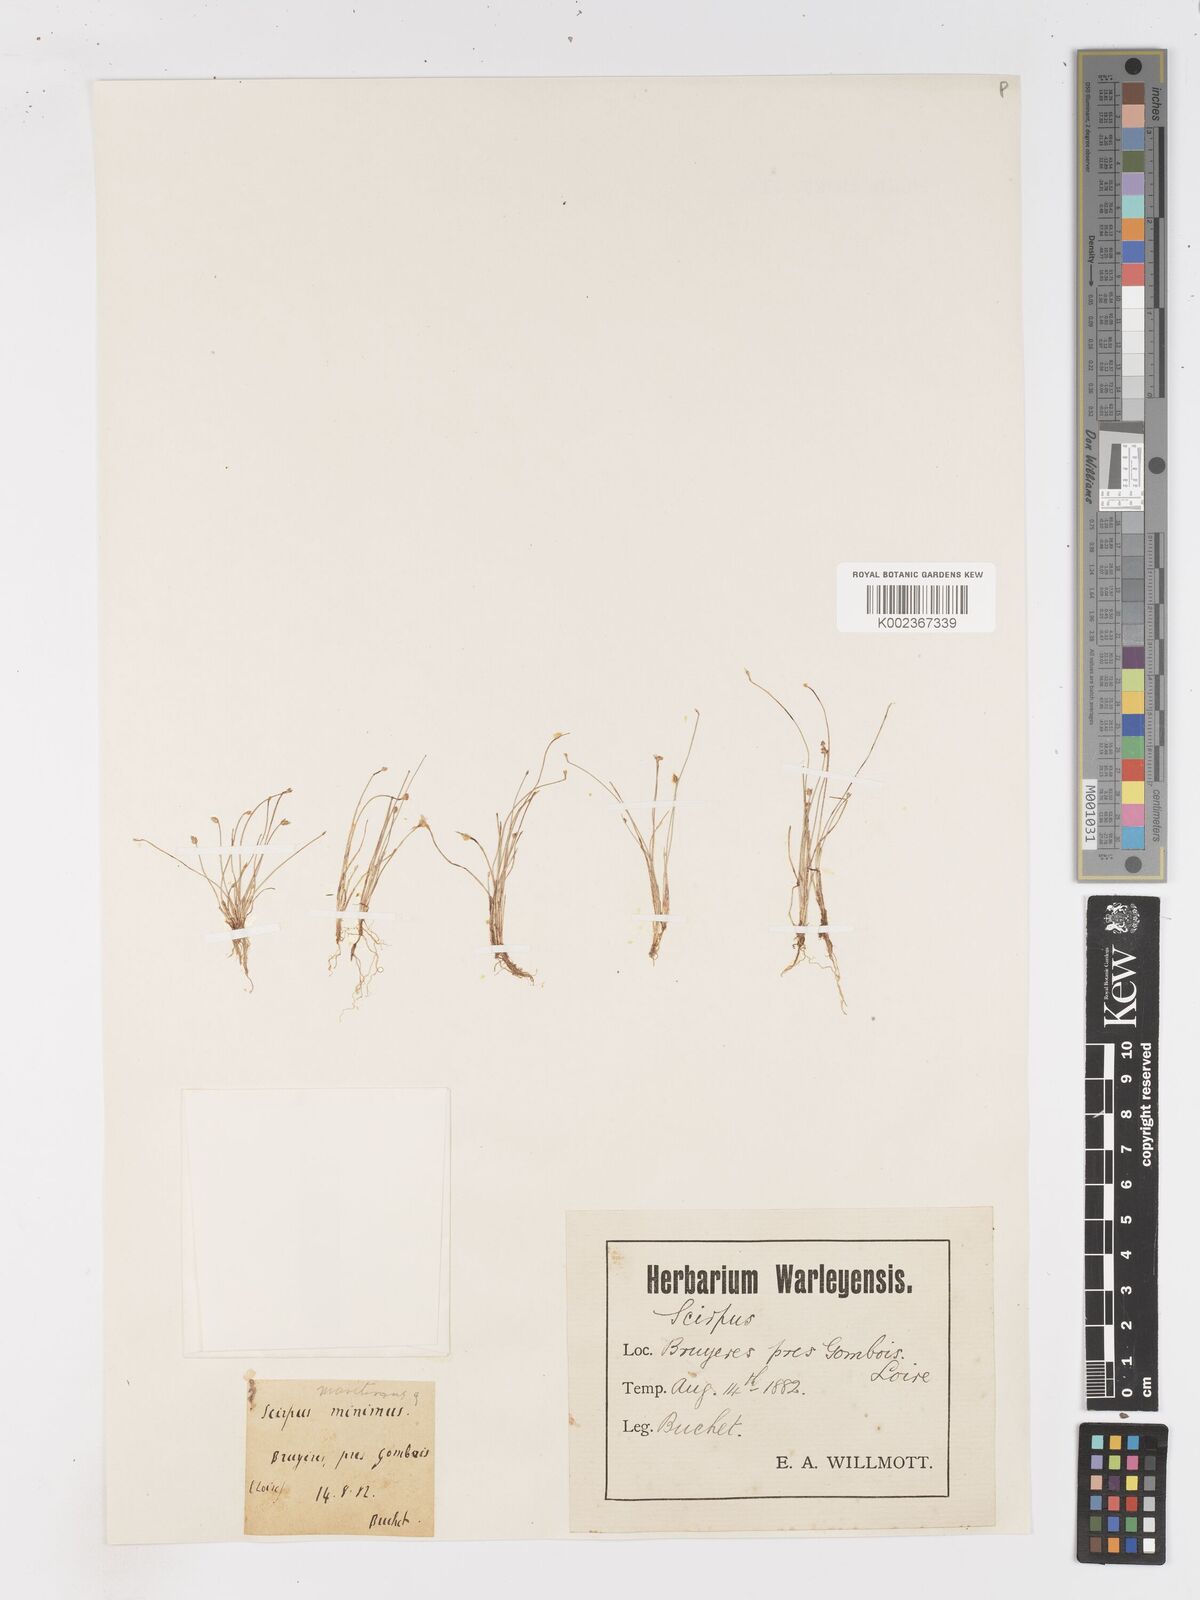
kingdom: Plantae
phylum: Tracheophyta
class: Liliopsida
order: Poales
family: Cyperaceae
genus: Isolepis
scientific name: Isolepis cernua
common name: Slender club-rush
